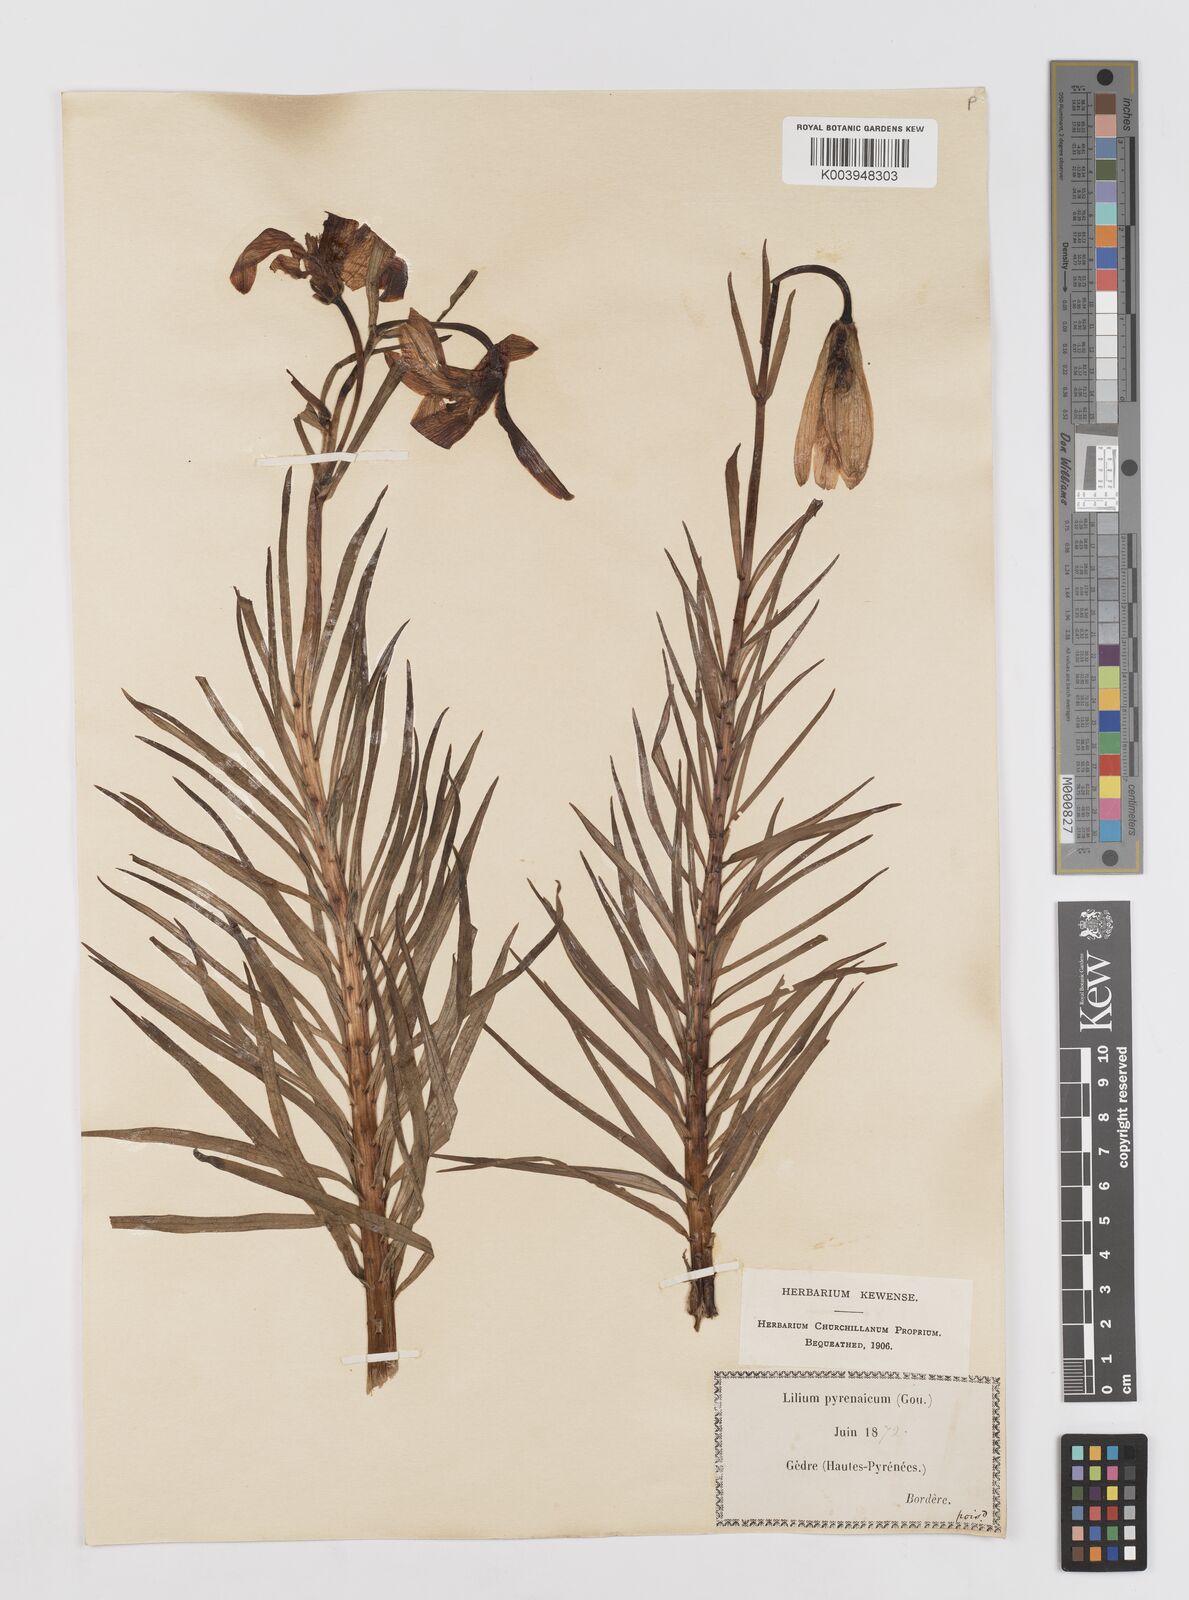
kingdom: Plantae
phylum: Tracheophyta
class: Liliopsida
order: Liliales
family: Liliaceae
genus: Lilium
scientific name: Lilium pyrenaicum
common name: Pyrenean lily
